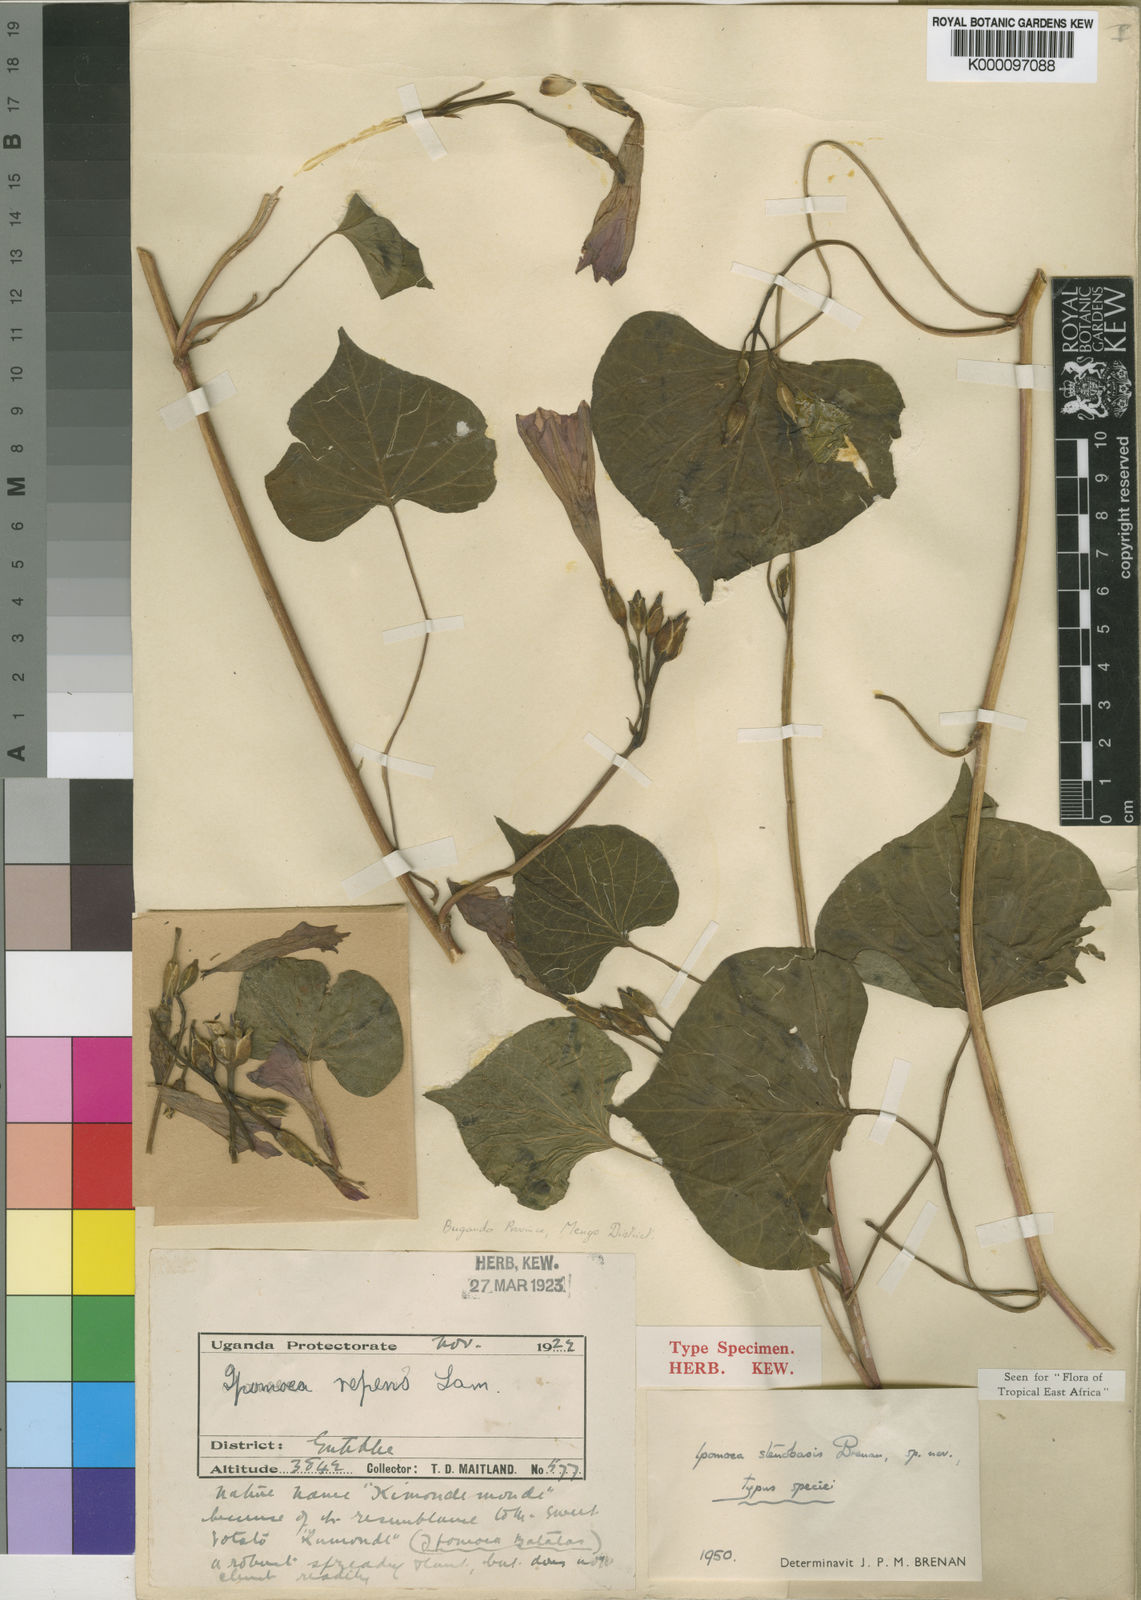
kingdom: Plantae
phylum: Tracheophyta
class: Magnoliopsida
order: Solanales
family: Convolvulaceae
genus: Ipomoea
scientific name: Ipomoea stenobasis
